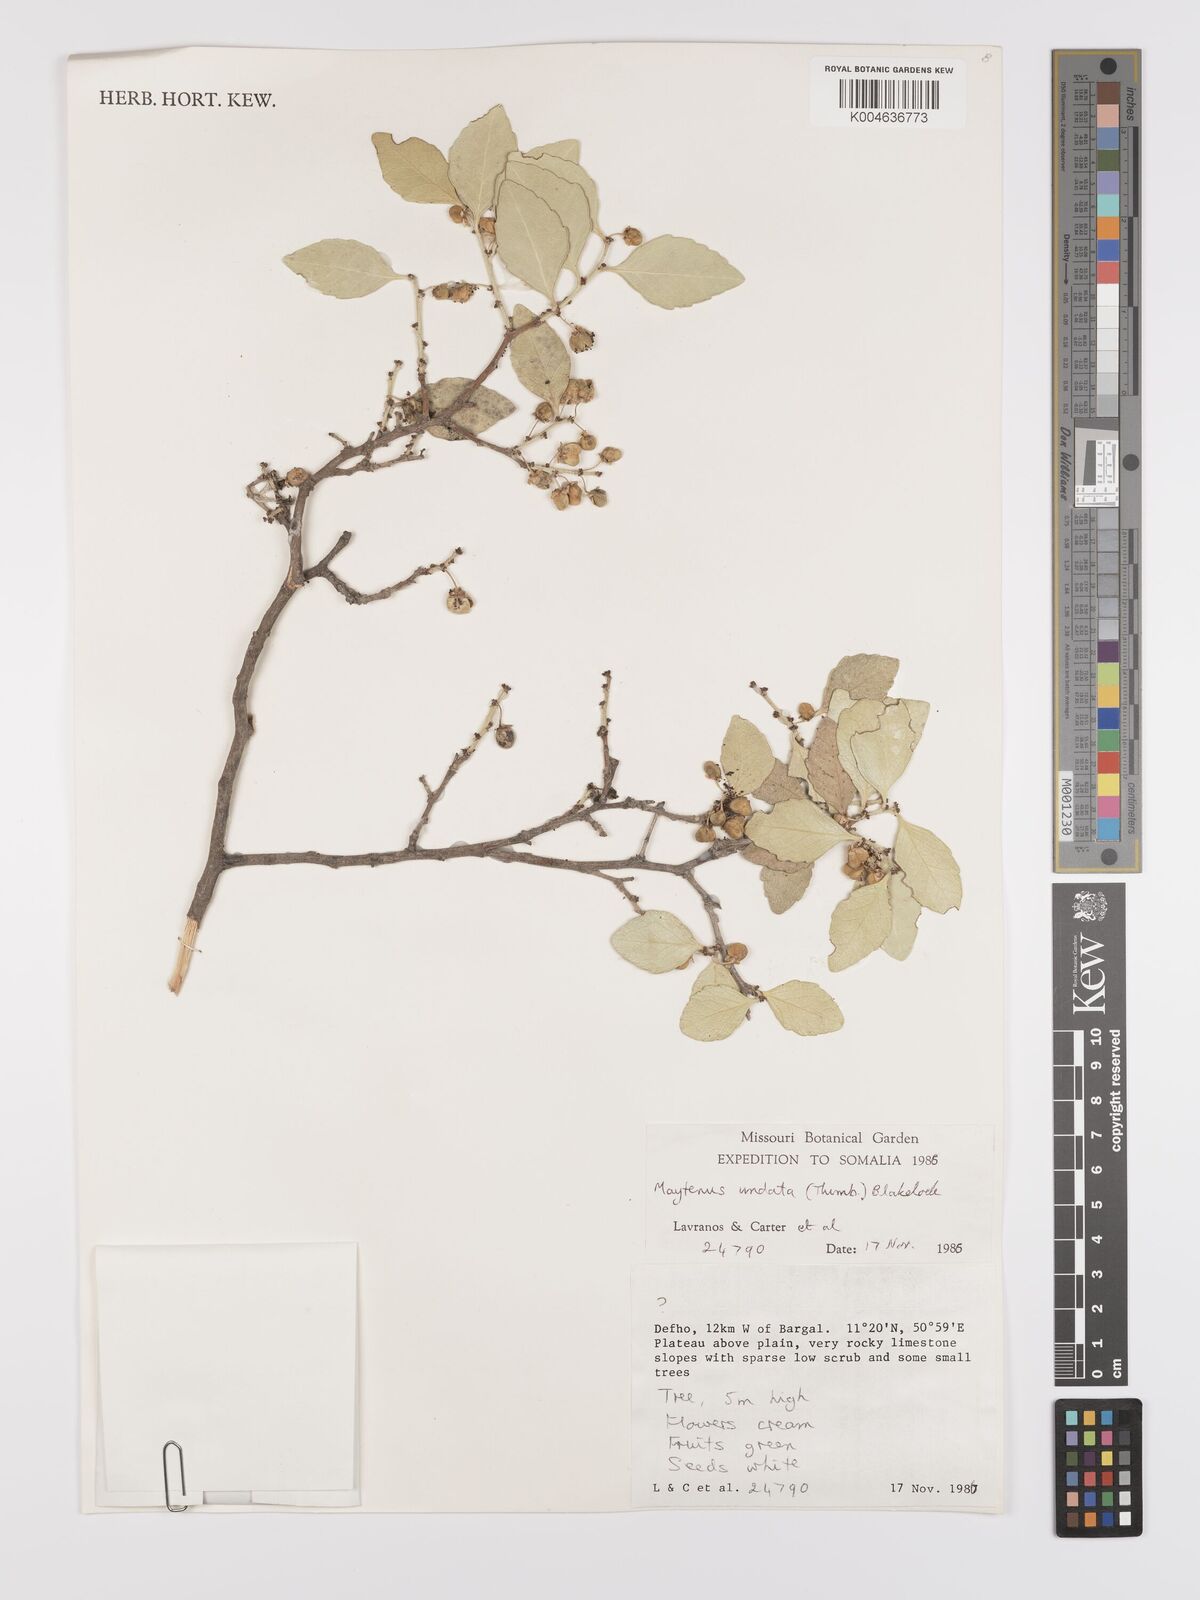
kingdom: Plantae
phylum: Tracheophyta
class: Magnoliopsida
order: Celastrales
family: Celastraceae
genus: Gymnosporia
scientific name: Gymnosporia undata
